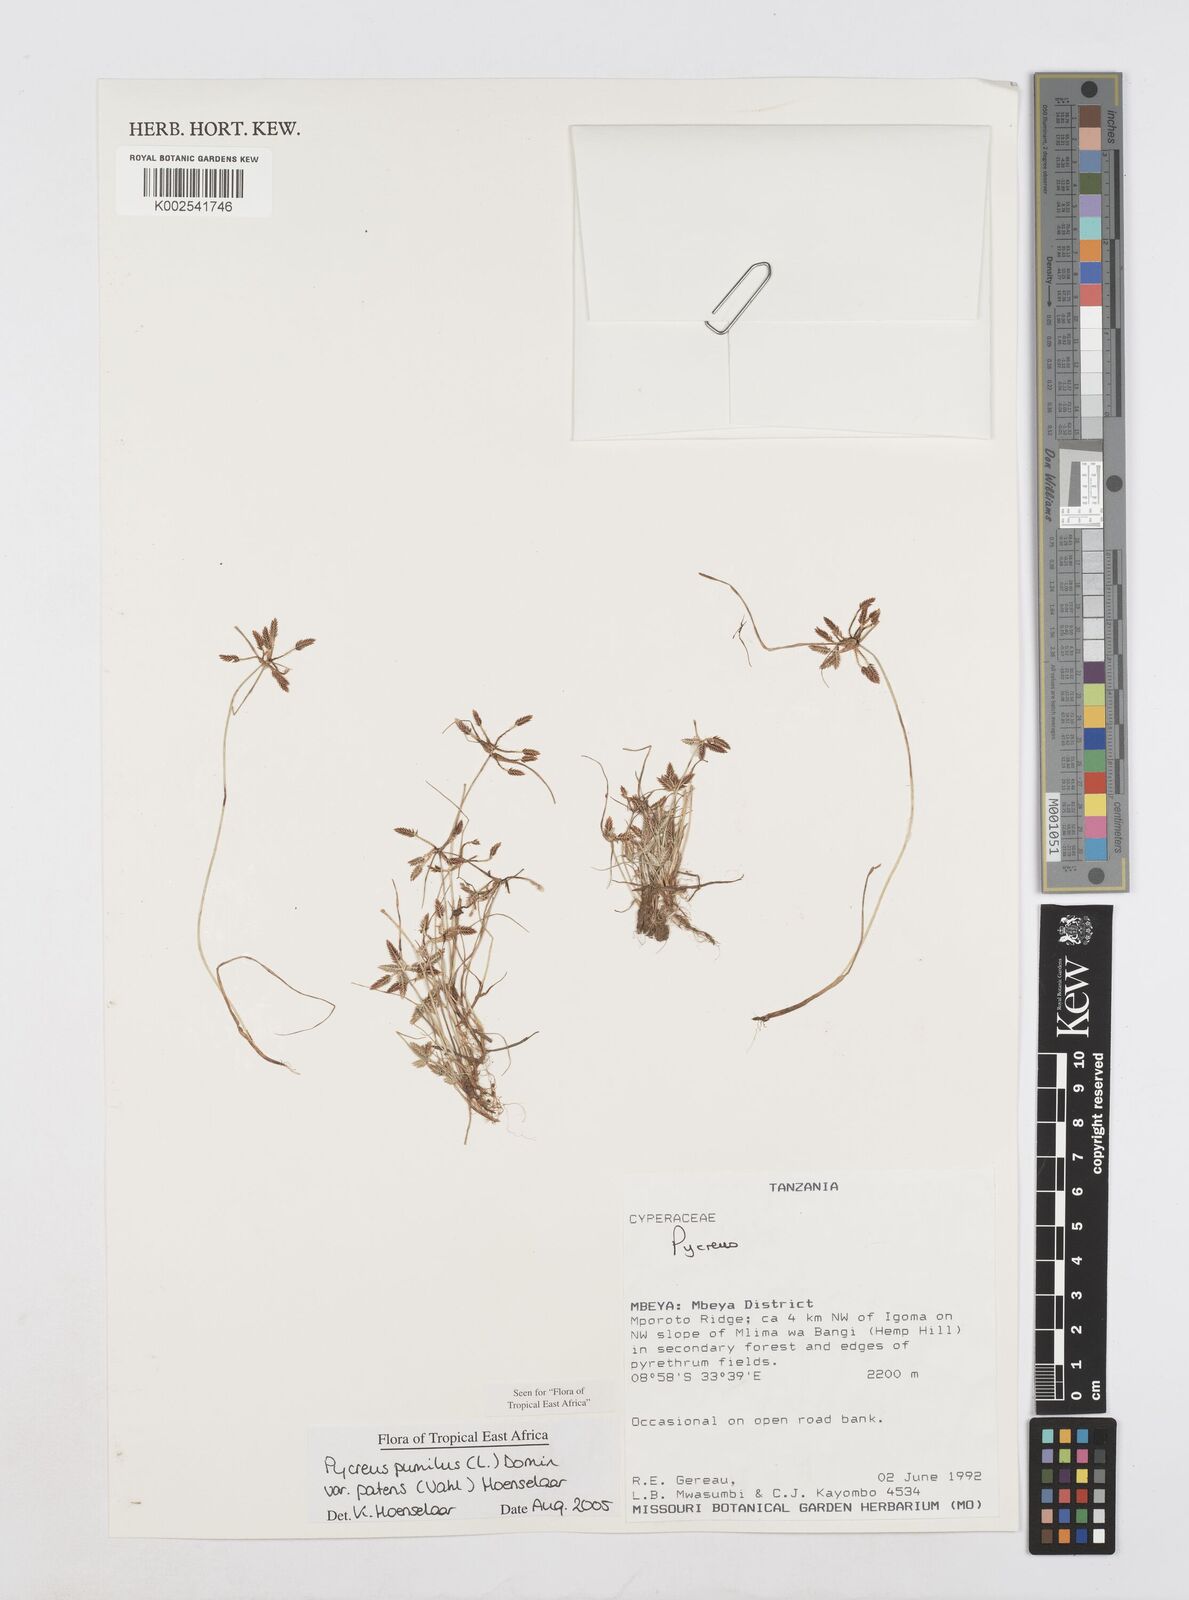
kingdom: Plantae
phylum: Tracheophyta
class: Liliopsida
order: Poales
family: Cyperaceae
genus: Cyperus
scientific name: Cyperus pumilus
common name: Low flatsedge
